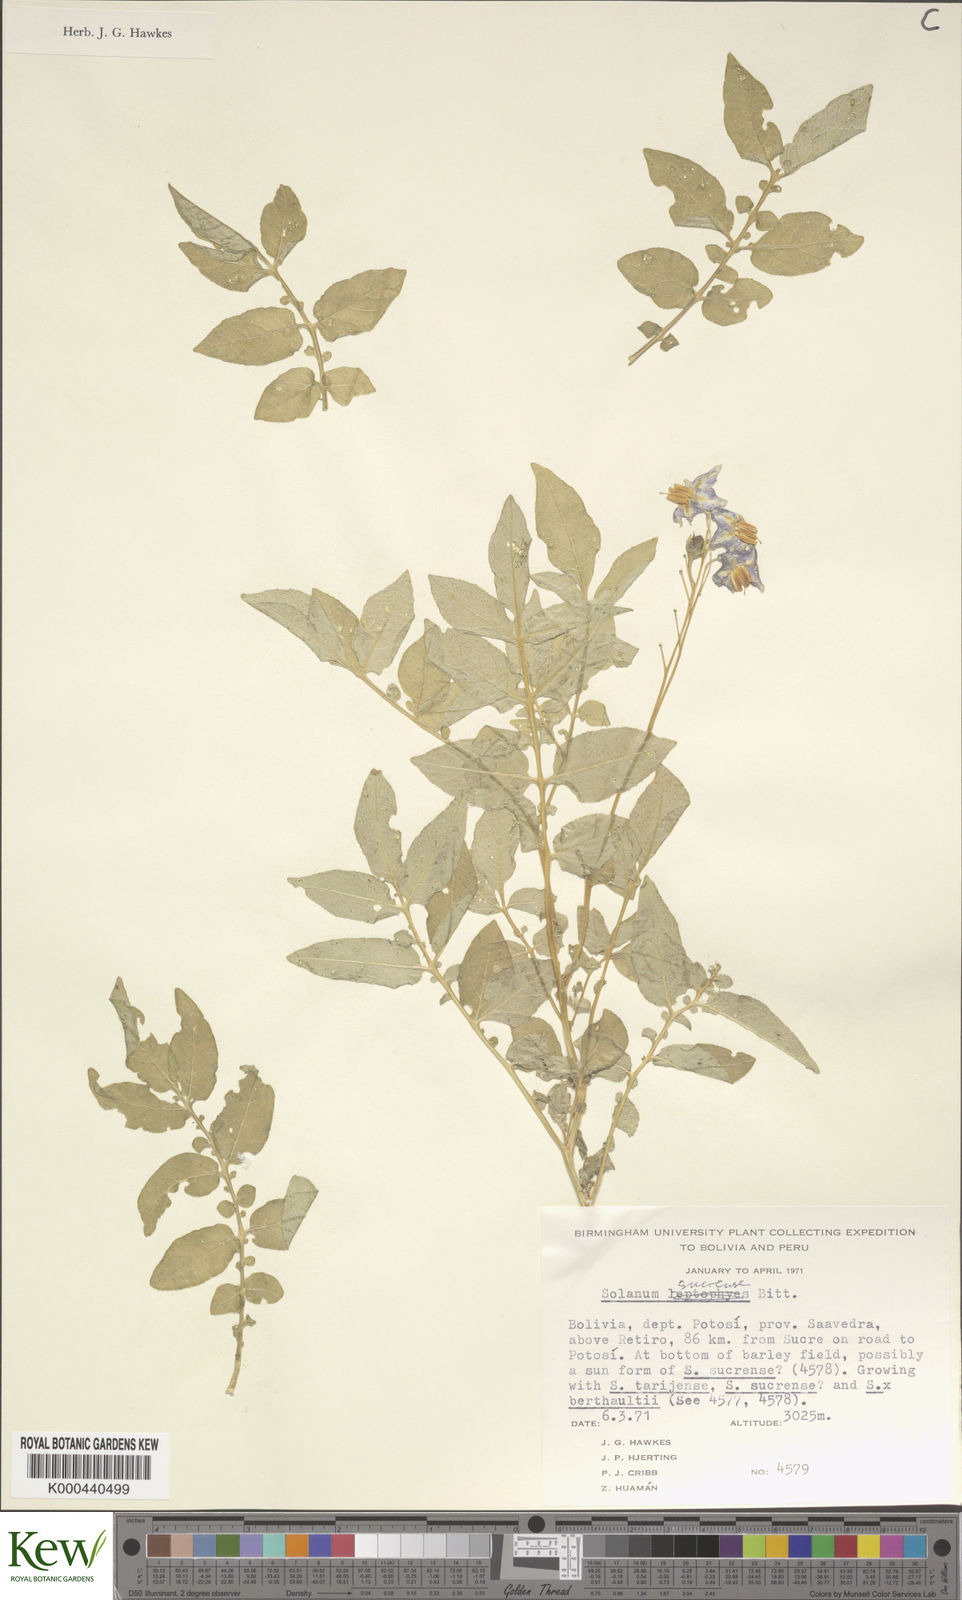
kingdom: Plantae
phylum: Tracheophyta
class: Magnoliopsida
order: Solanales
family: Solanaceae
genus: Solanum
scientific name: Solanum brevicaule
